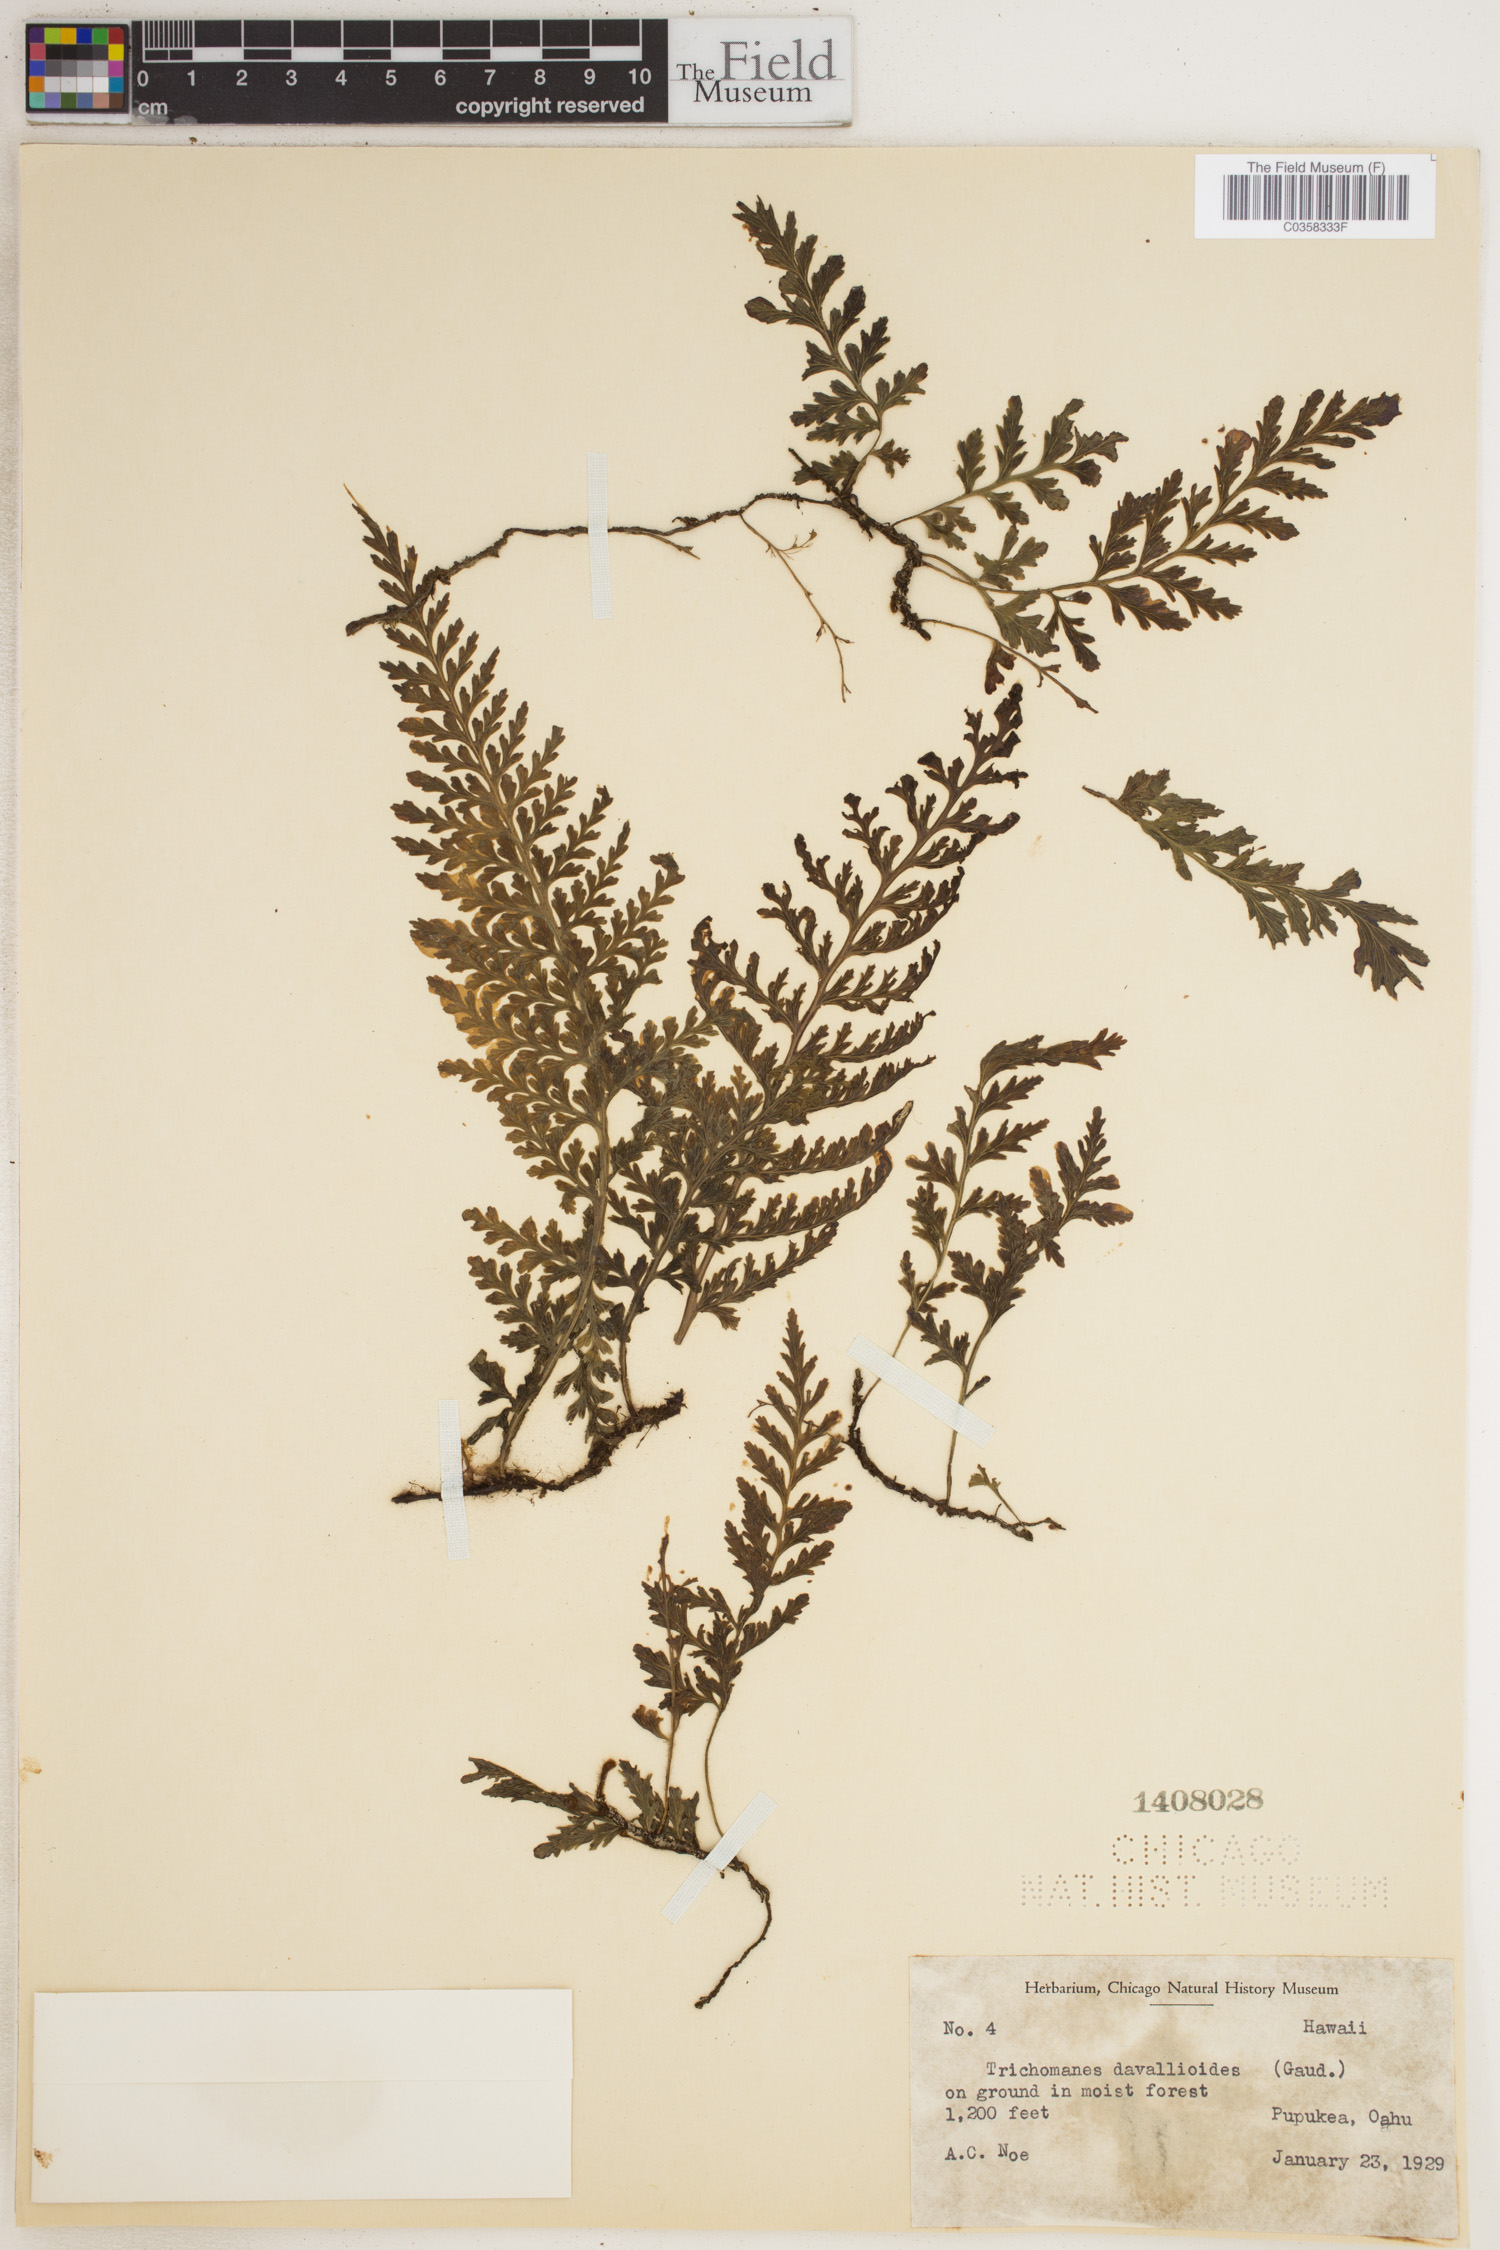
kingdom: Plantae
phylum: Tracheophyta
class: Polypodiopsida
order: Hymenophyllales
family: Hymenophyllaceae
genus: Vandenboschia
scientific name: Vandenboschia davallioides
